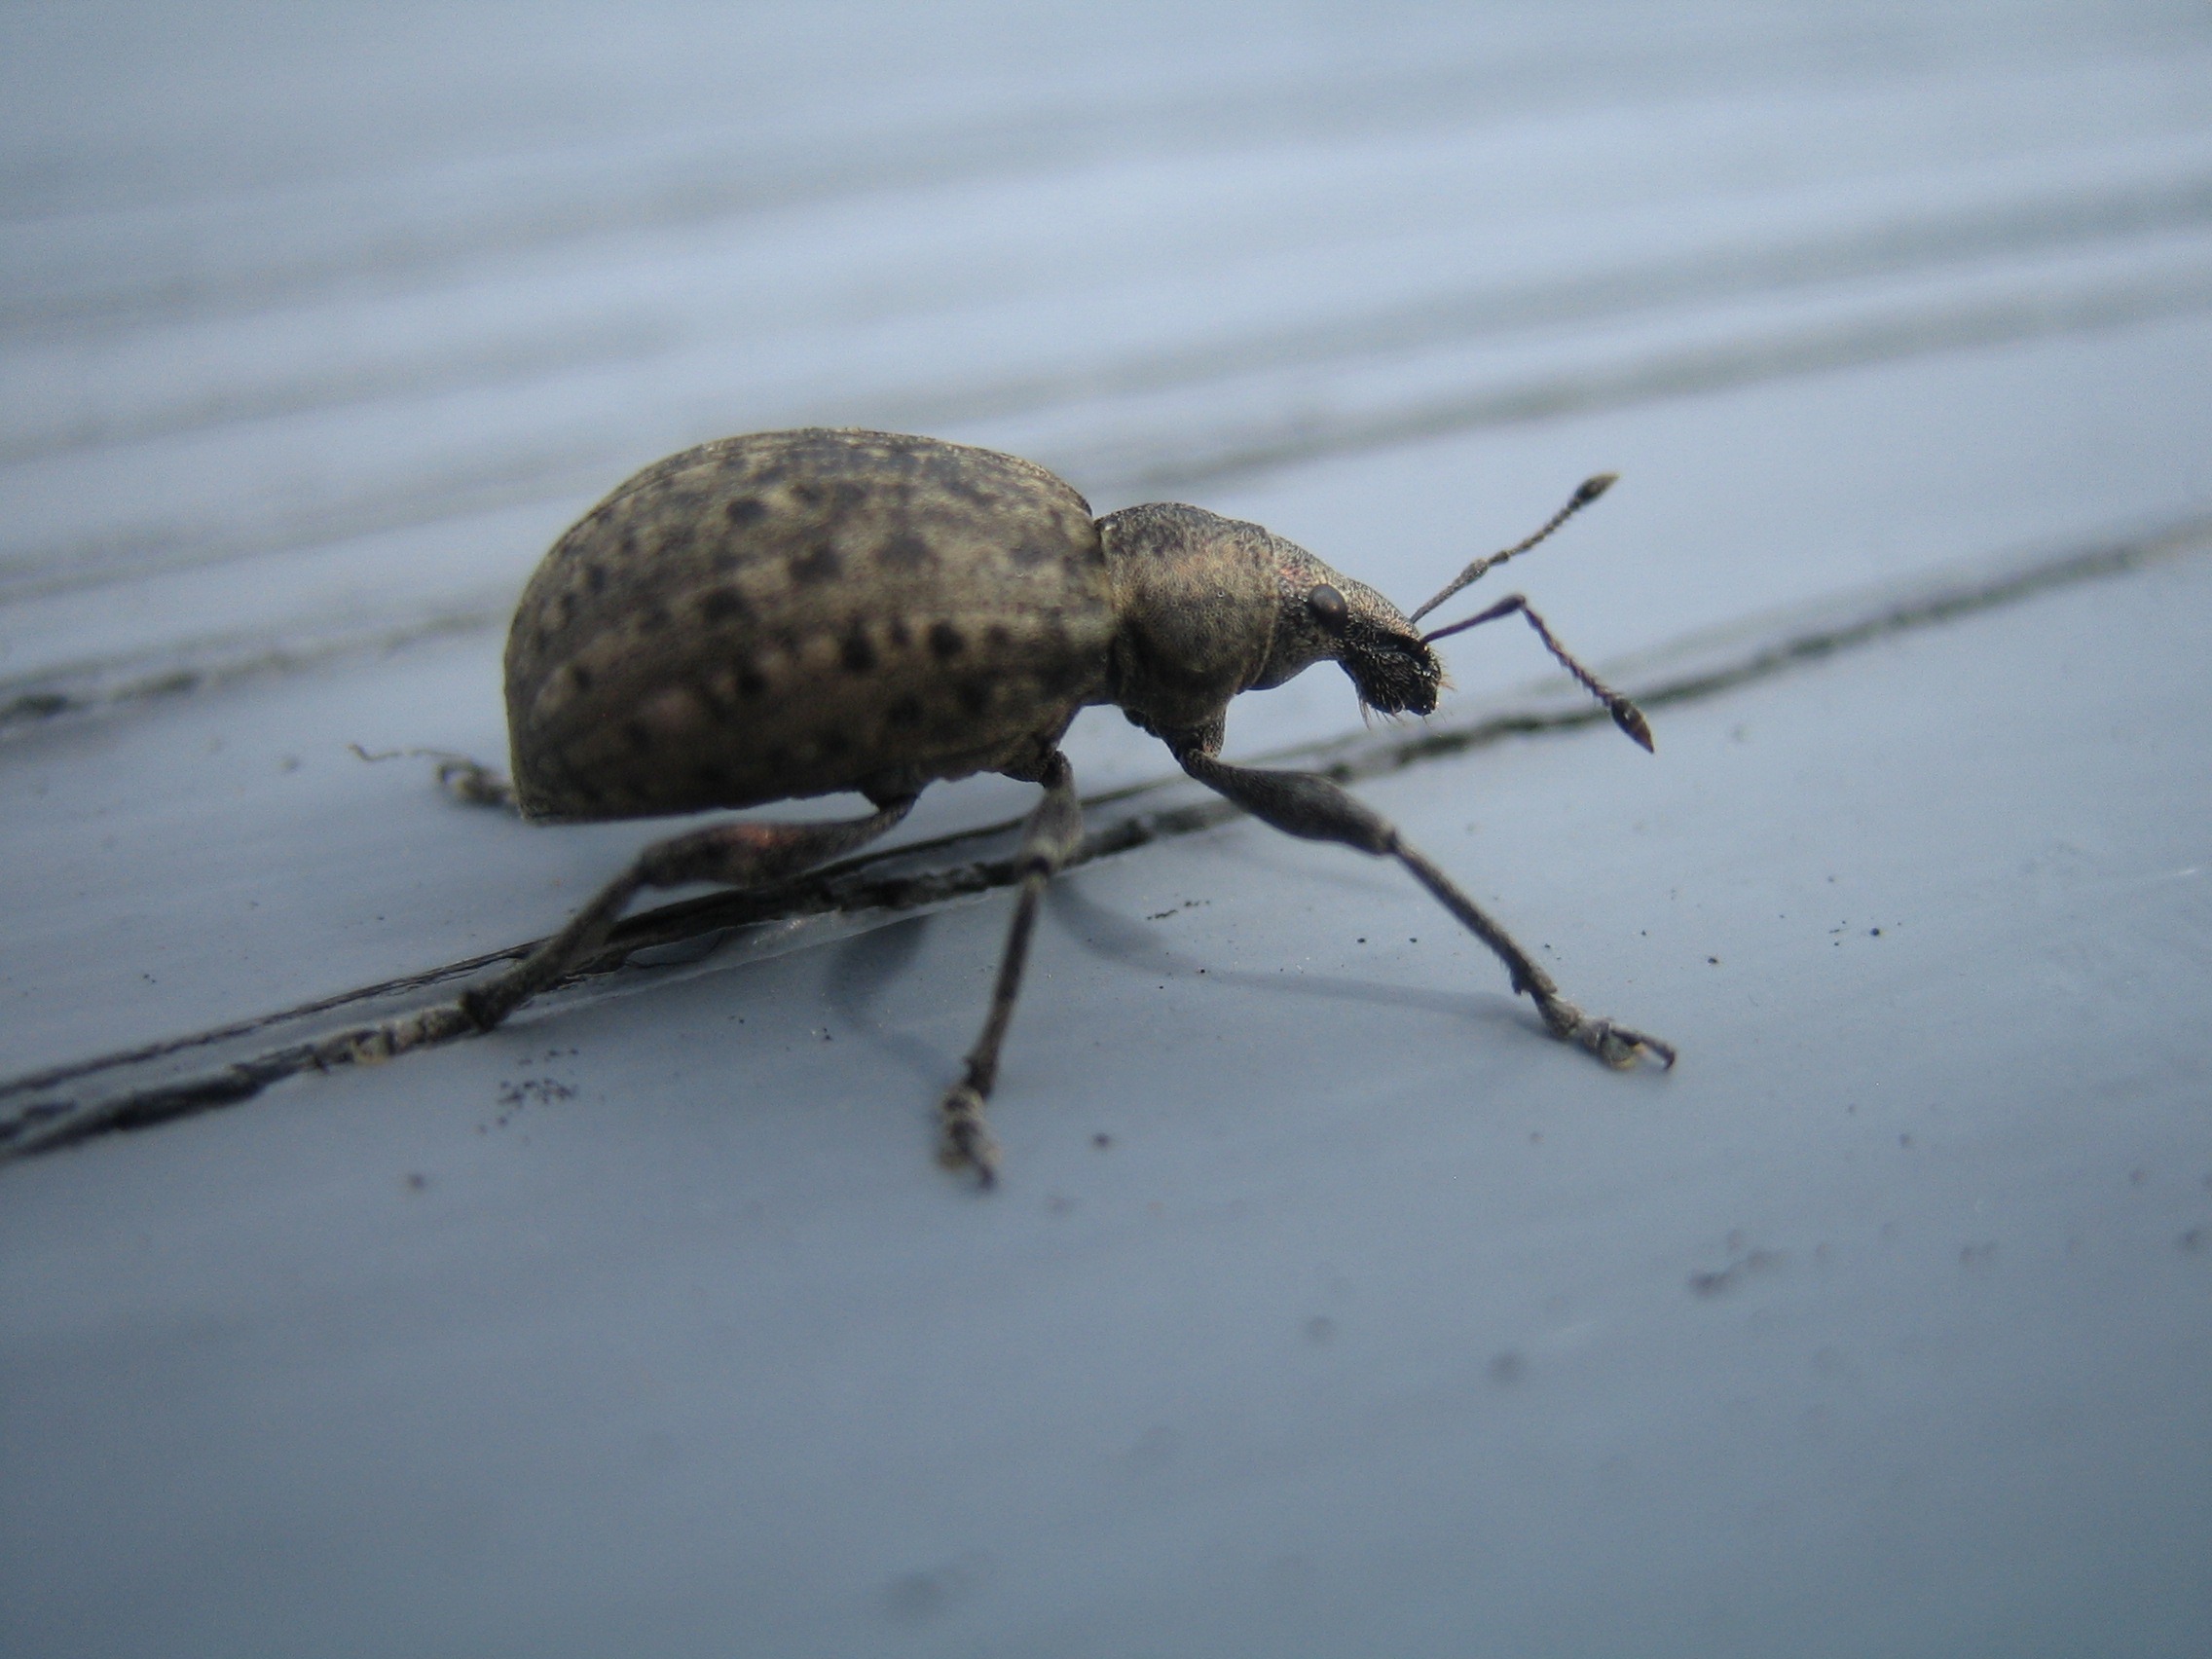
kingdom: Animalia
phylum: Arthropoda
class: Insecta
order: Coleoptera
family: Curculionidae
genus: Liophloeus
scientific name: Liophloeus tessulatus
